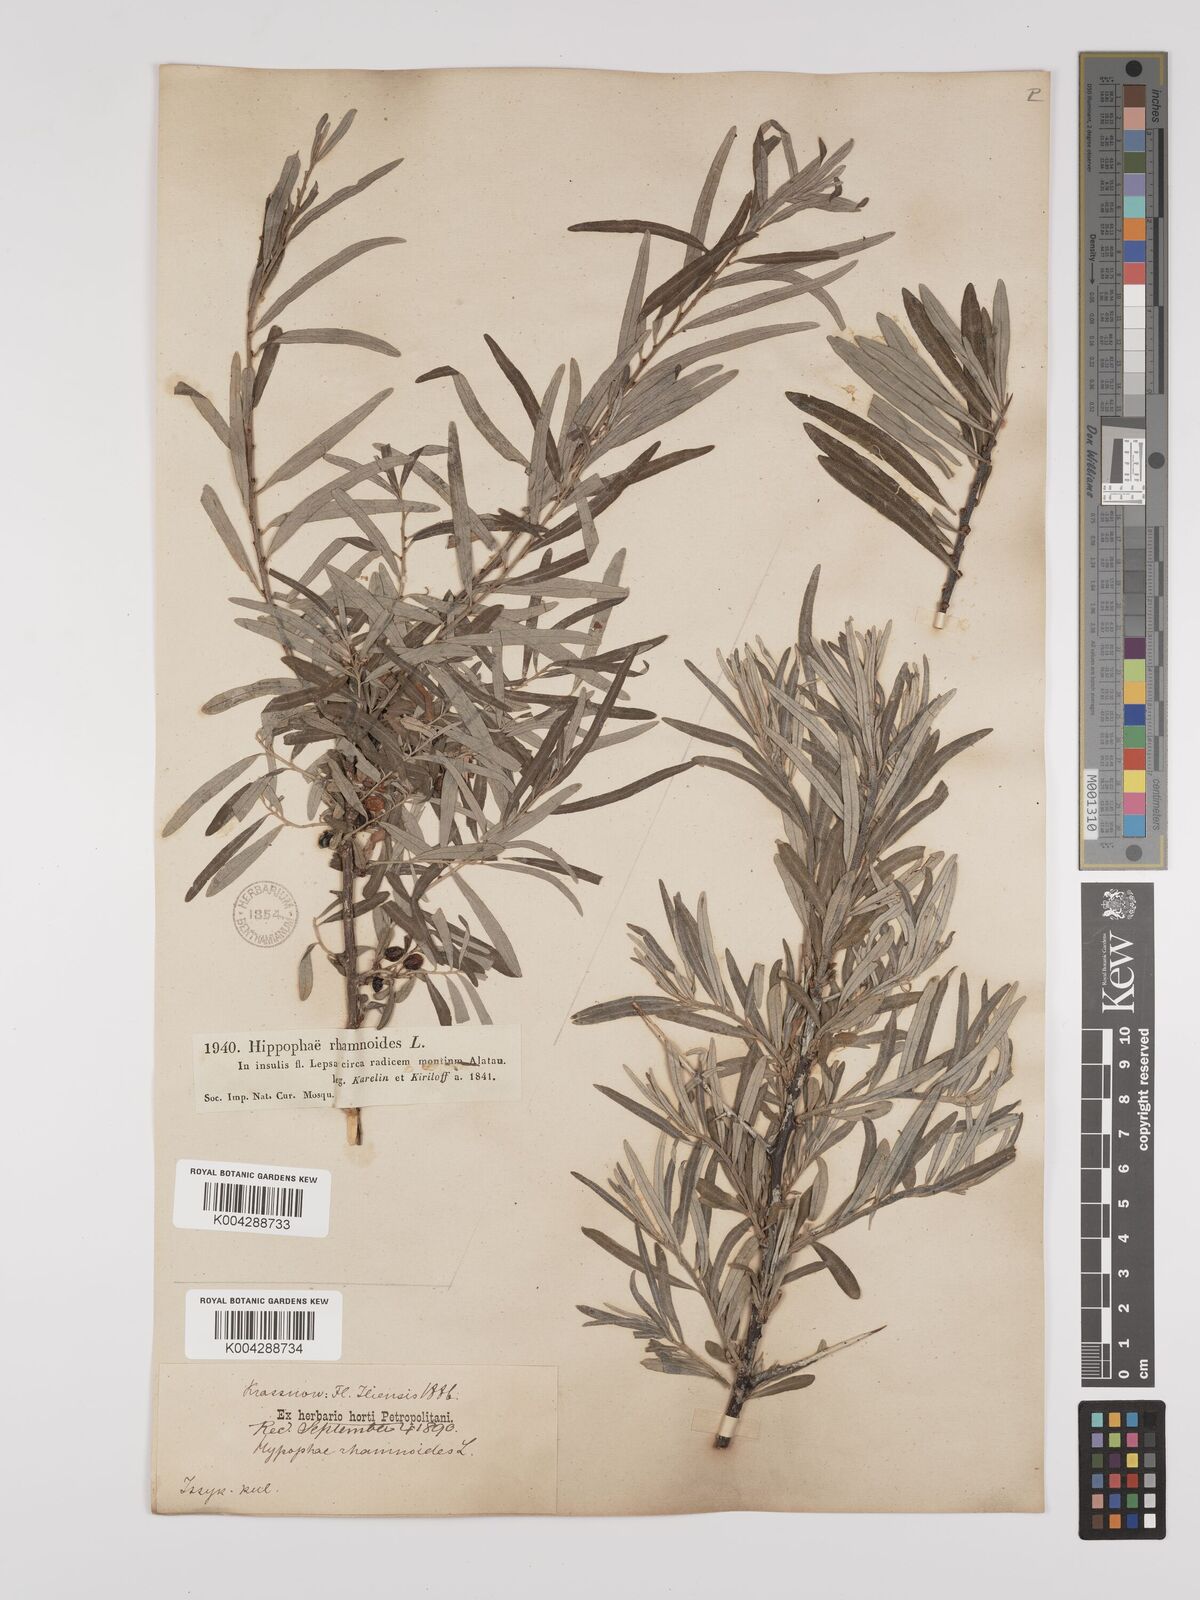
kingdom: Plantae
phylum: Tracheophyta
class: Magnoliopsida
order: Rosales
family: Elaeagnaceae
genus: Hippophae
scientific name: Hippophae rhamnoides
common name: Sea-buckthorn
